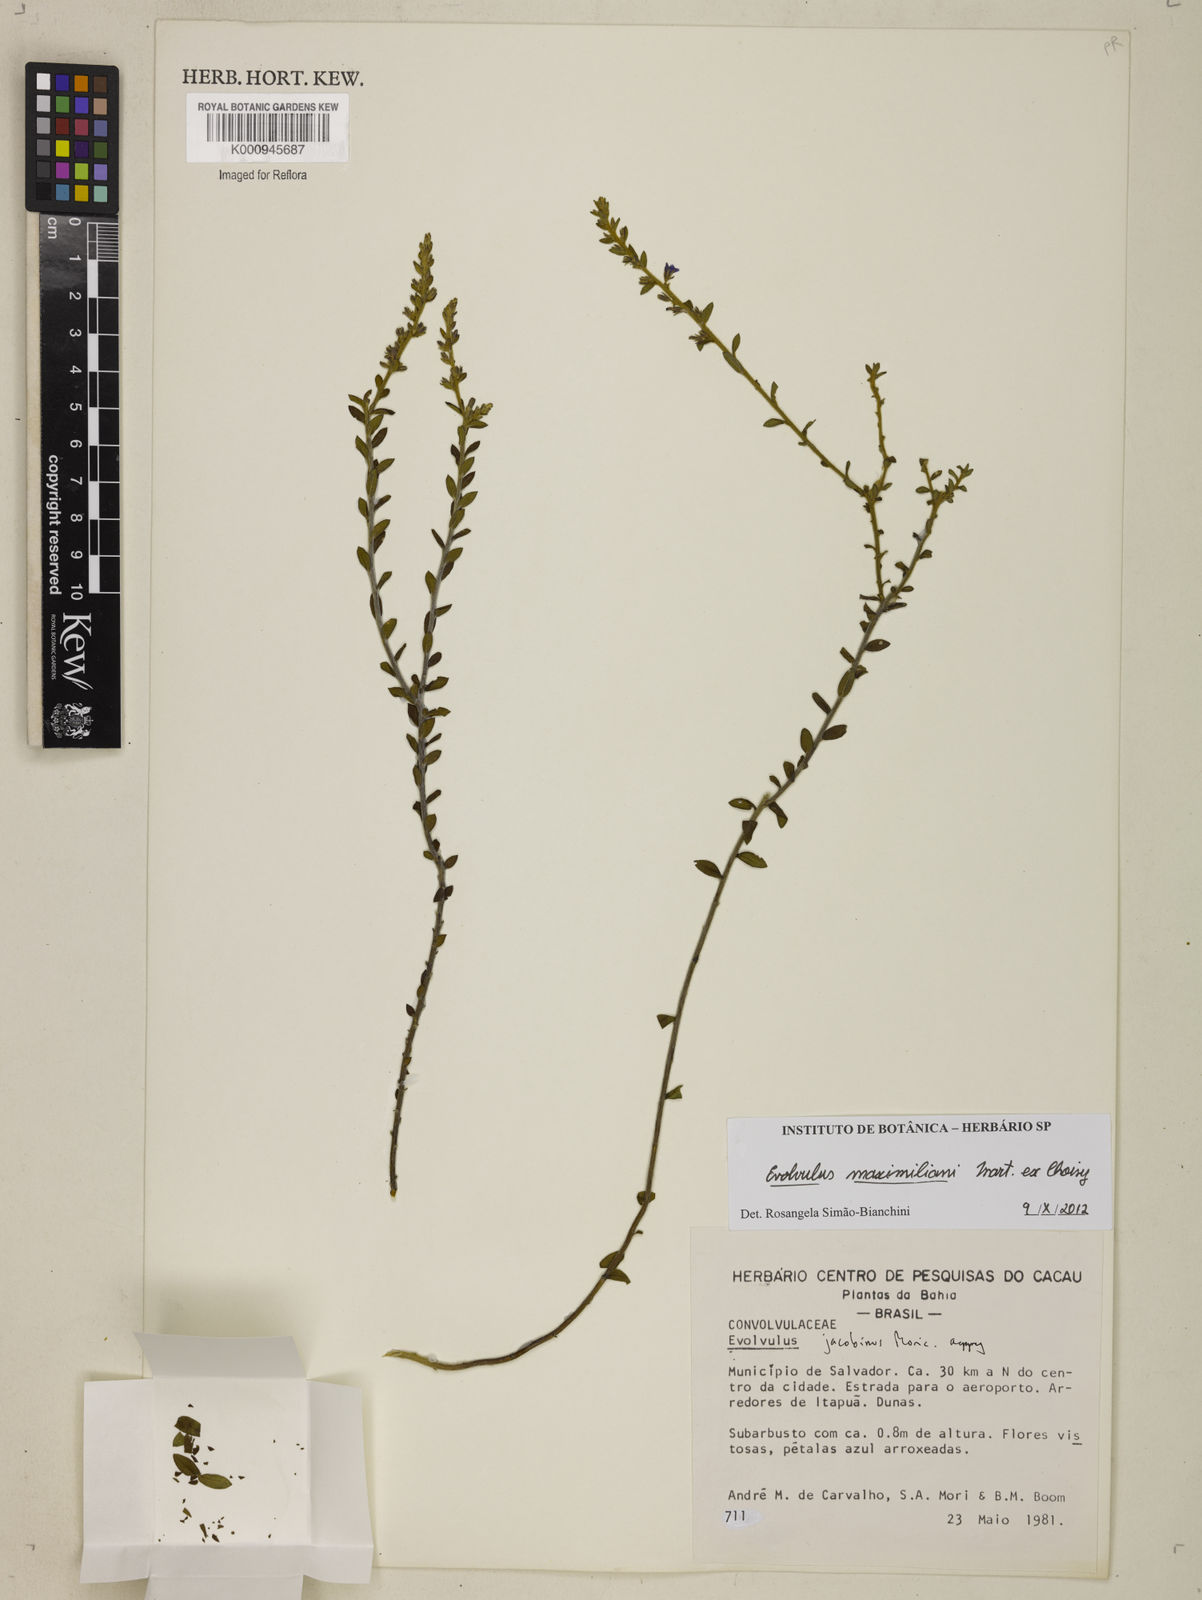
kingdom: Plantae
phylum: Tracheophyta
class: Magnoliopsida
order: Solanales
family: Convolvulaceae
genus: Evolvulus
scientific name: Evolvulus maximiliani
